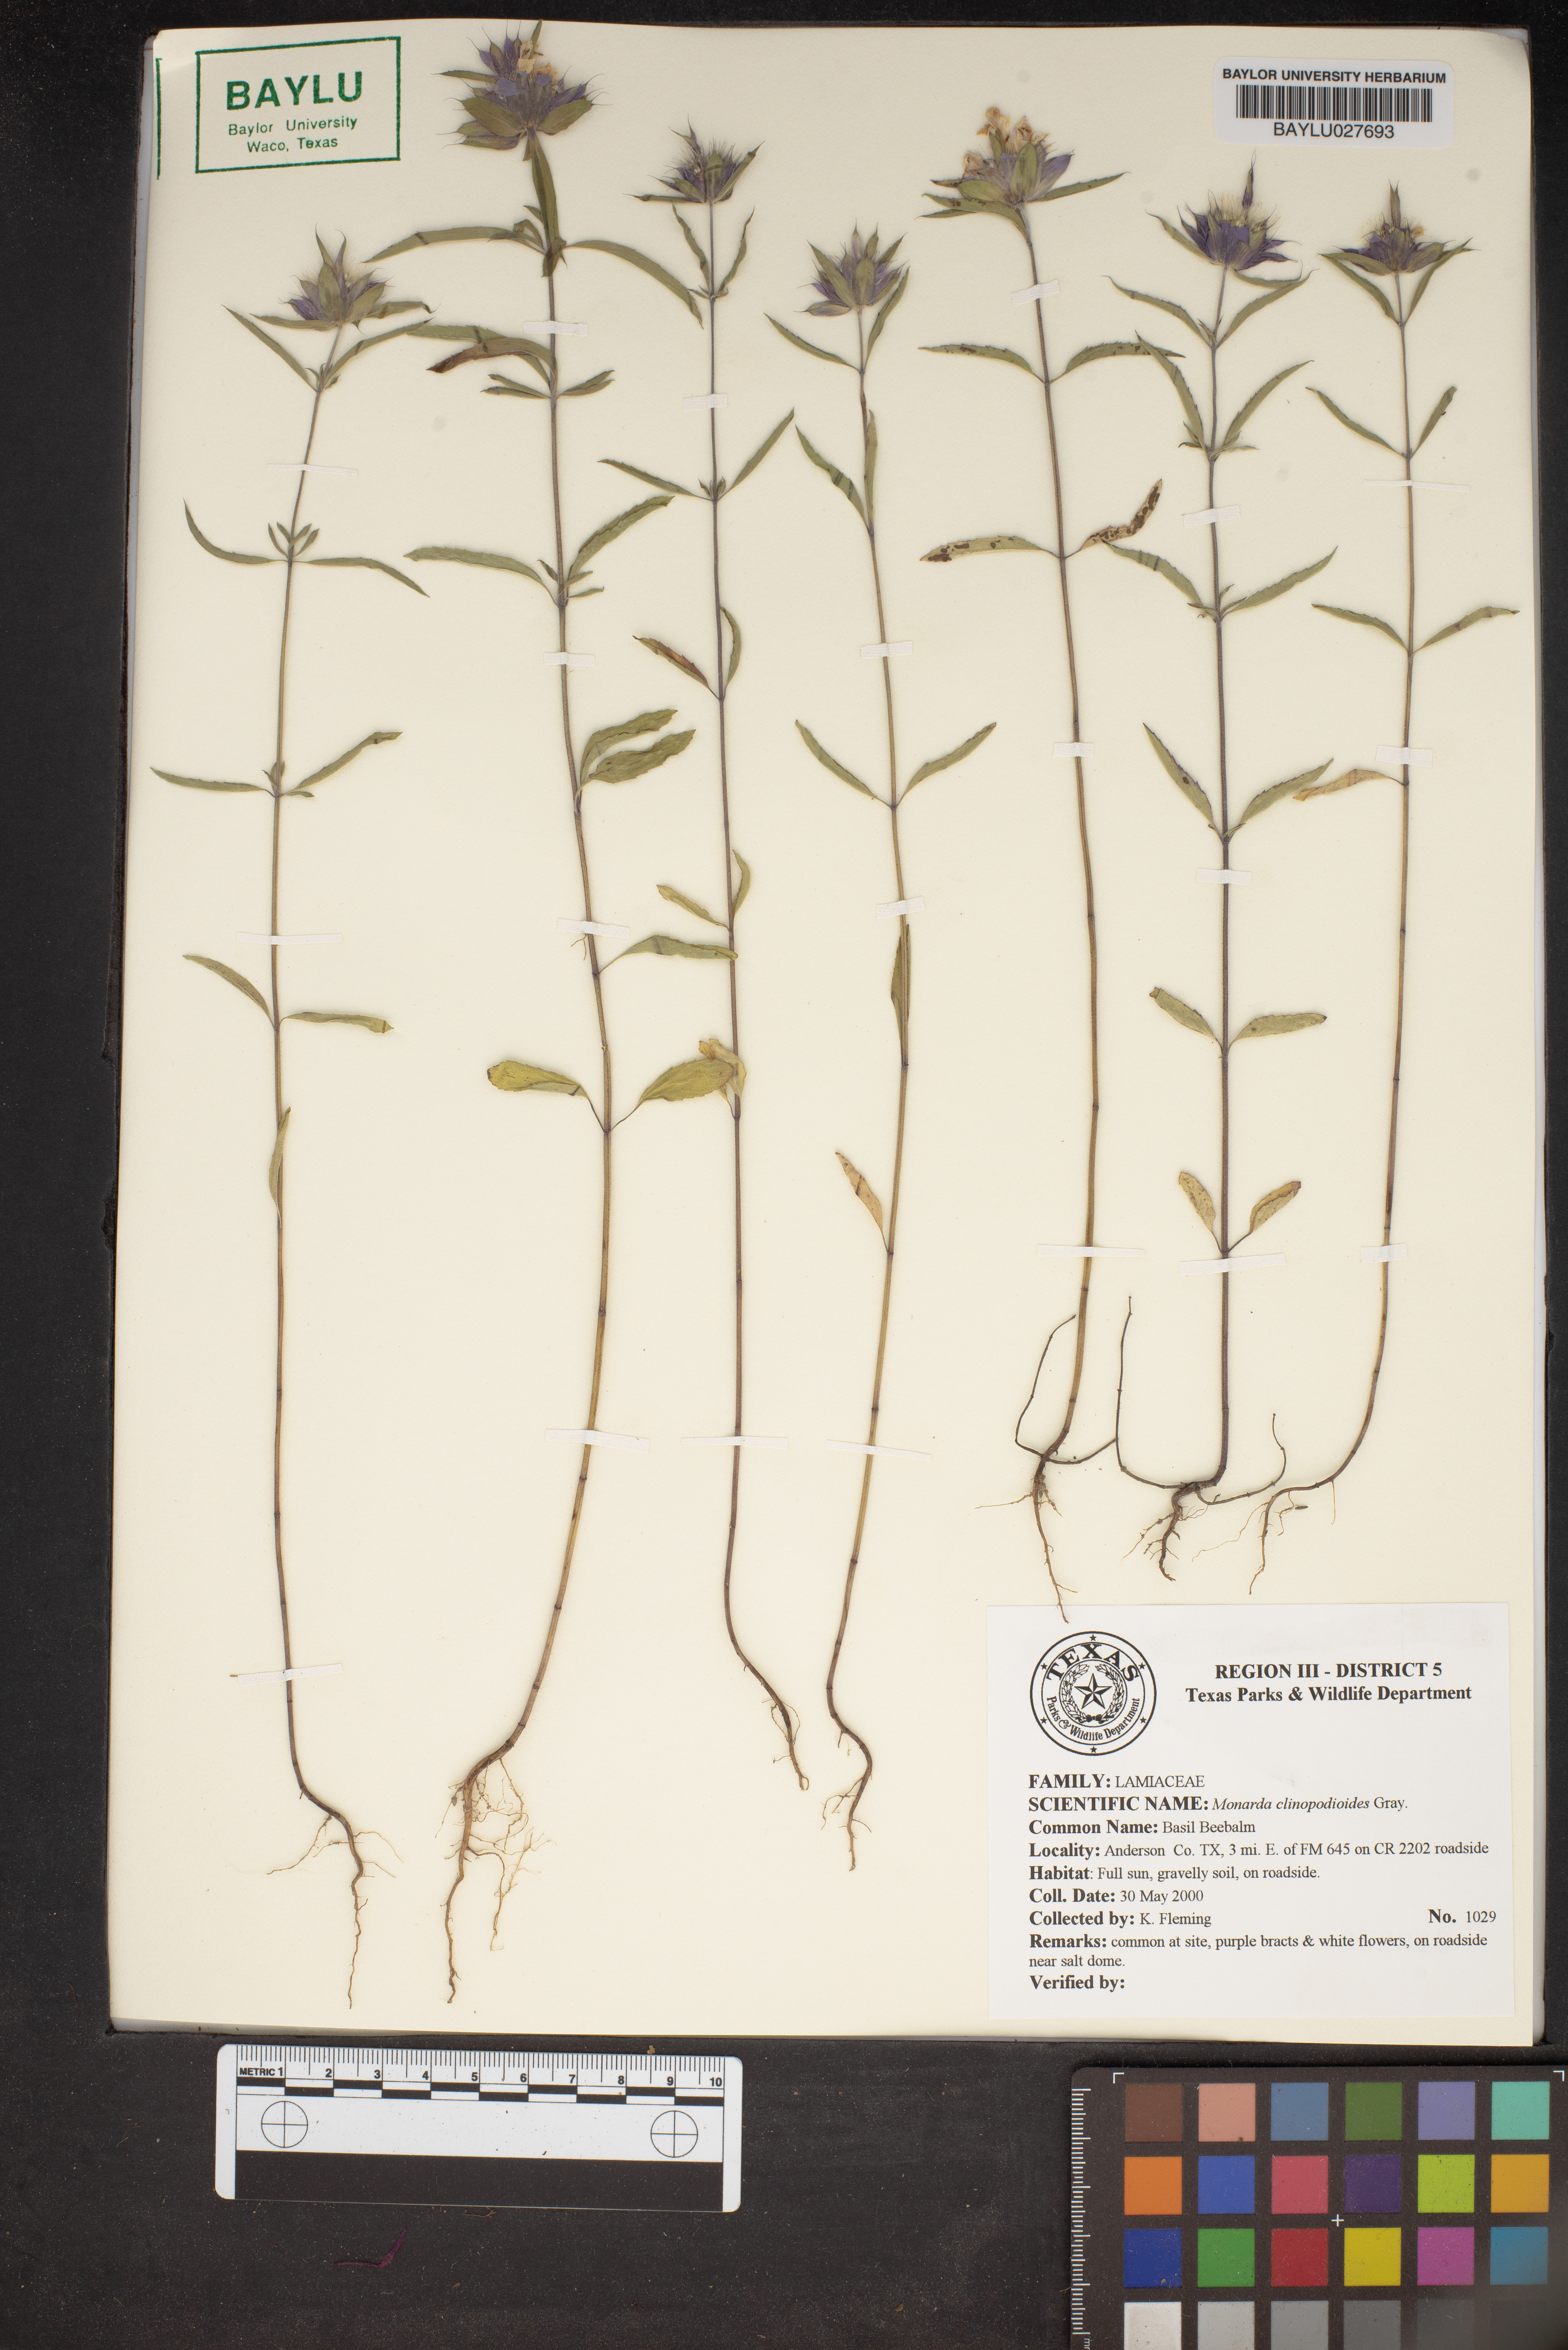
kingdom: Plantae
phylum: Tracheophyta
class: Magnoliopsida
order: Lamiales
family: Lamiaceae
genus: Monarda
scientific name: Monarda clinopodioides
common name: Basil beebalm
